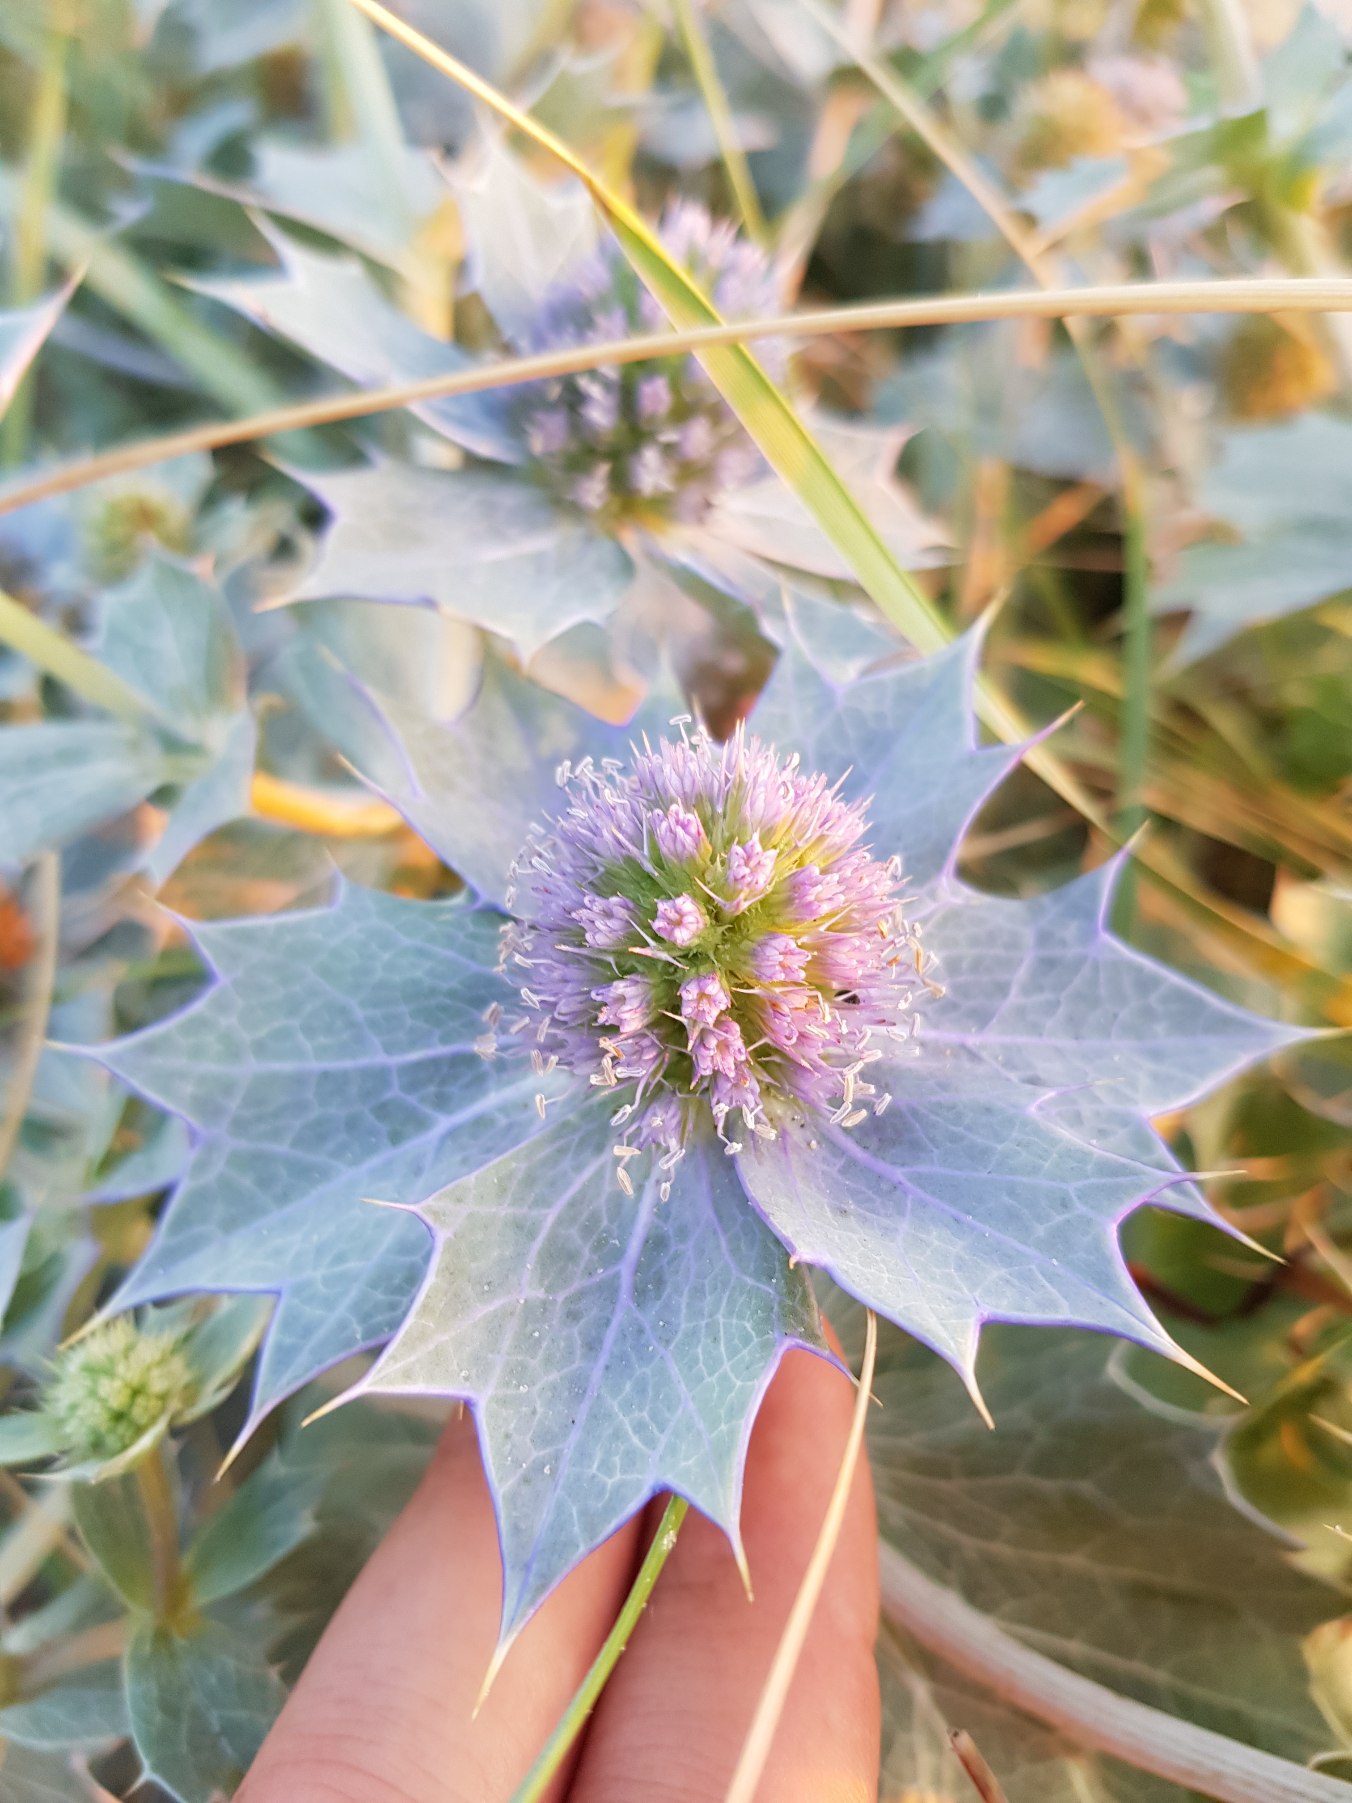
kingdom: Plantae
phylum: Tracheophyta
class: Magnoliopsida
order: Apiales
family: Apiaceae
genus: Eryngium
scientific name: Eryngium maritimum
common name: Strand-mandstro
